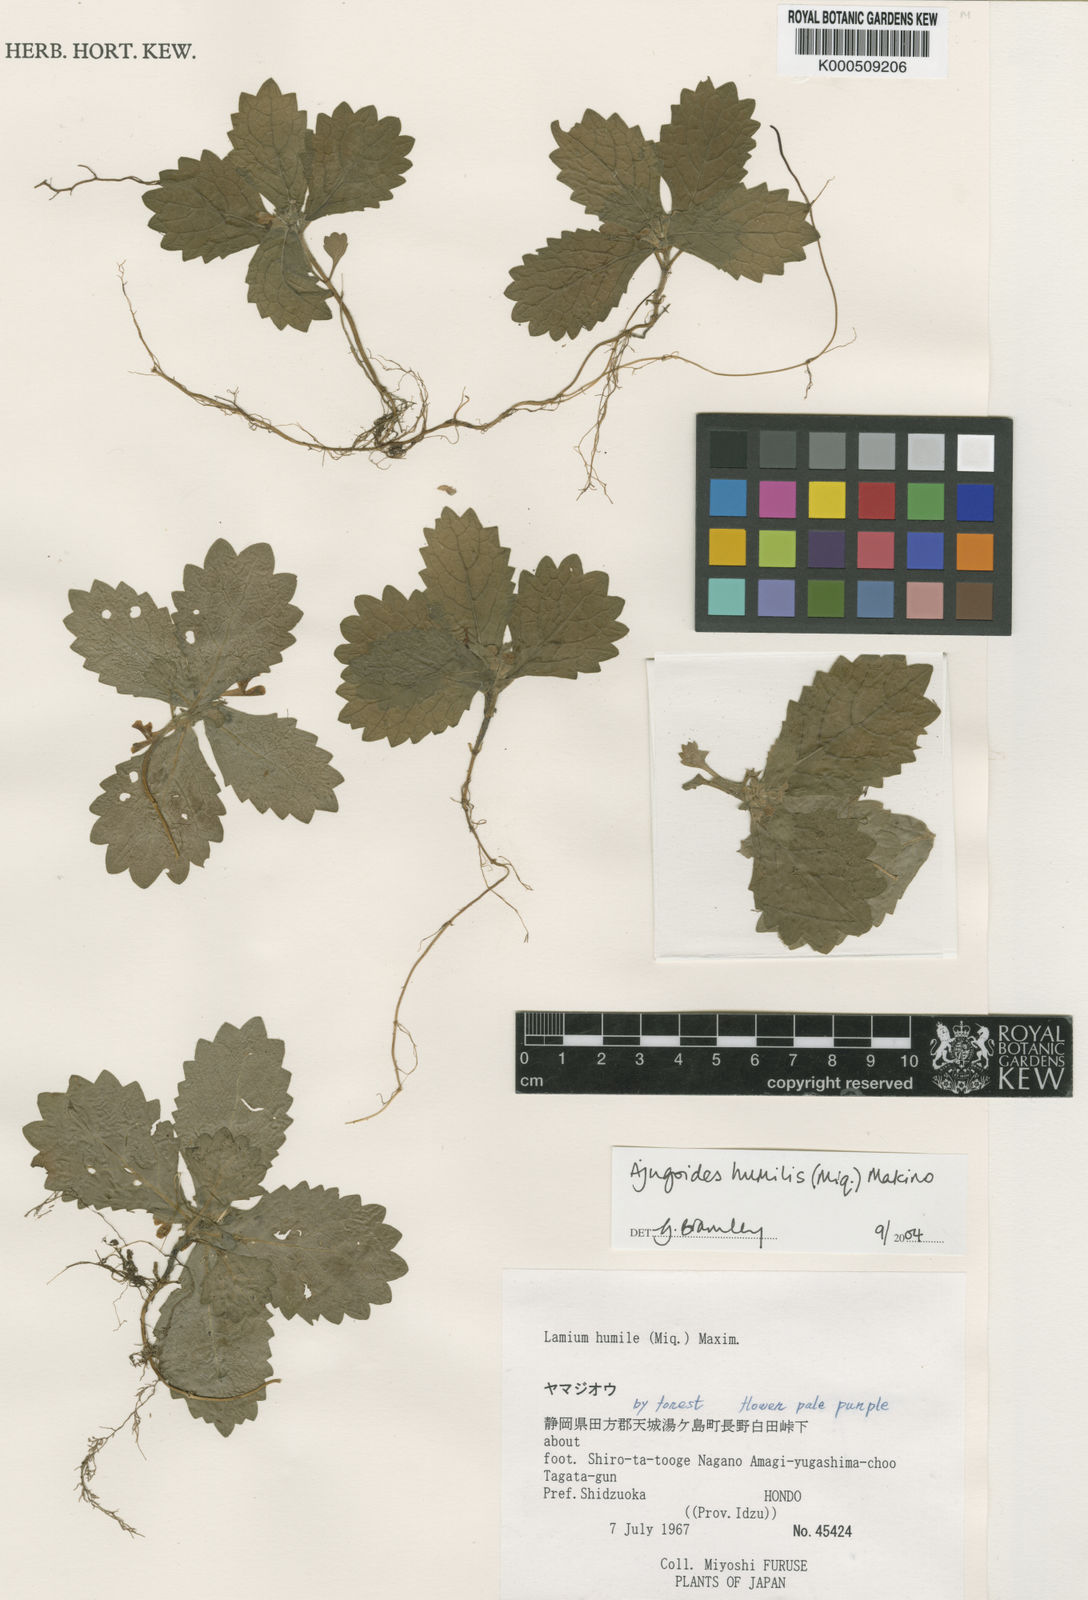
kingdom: Plantae
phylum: Tracheophyta
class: Magnoliopsida
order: Lamiales
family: Lamiaceae
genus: Ajugoides
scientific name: Ajugoides humilis
